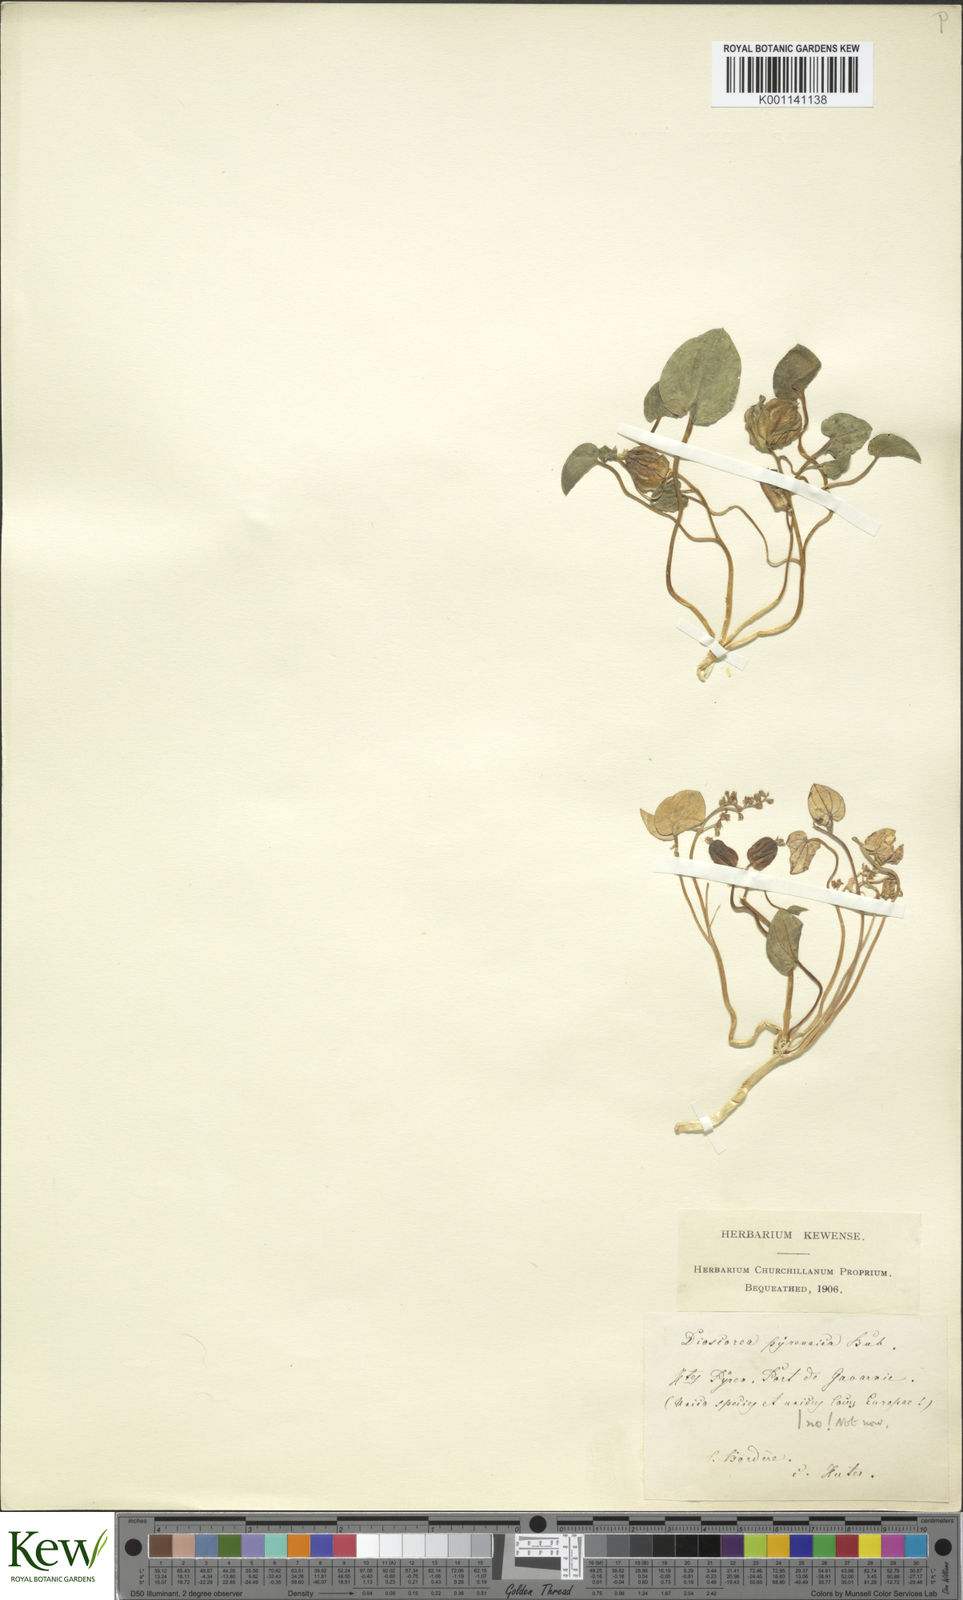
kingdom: Plantae
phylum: Tracheophyta
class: Liliopsida
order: Dioscoreales
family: Dioscoreaceae
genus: Dioscorea
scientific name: Dioscorea
